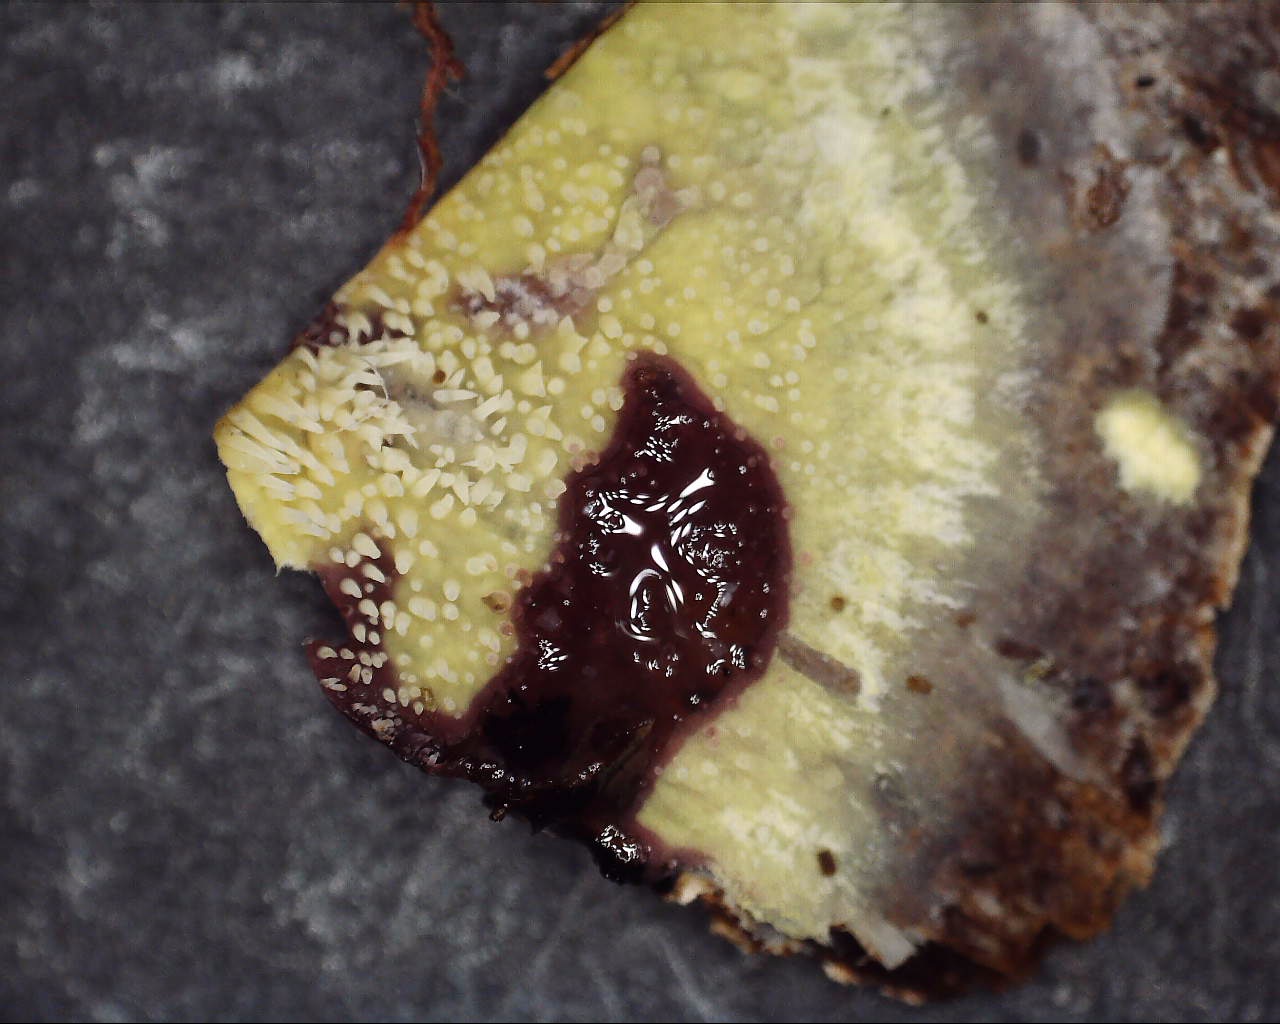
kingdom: Fungi
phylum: Basidiomycota
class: Agaricomycetes
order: Polyporales
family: Meruliaceae
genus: Mycoacia
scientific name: Mycoacia uda
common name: citrongul vokspig
